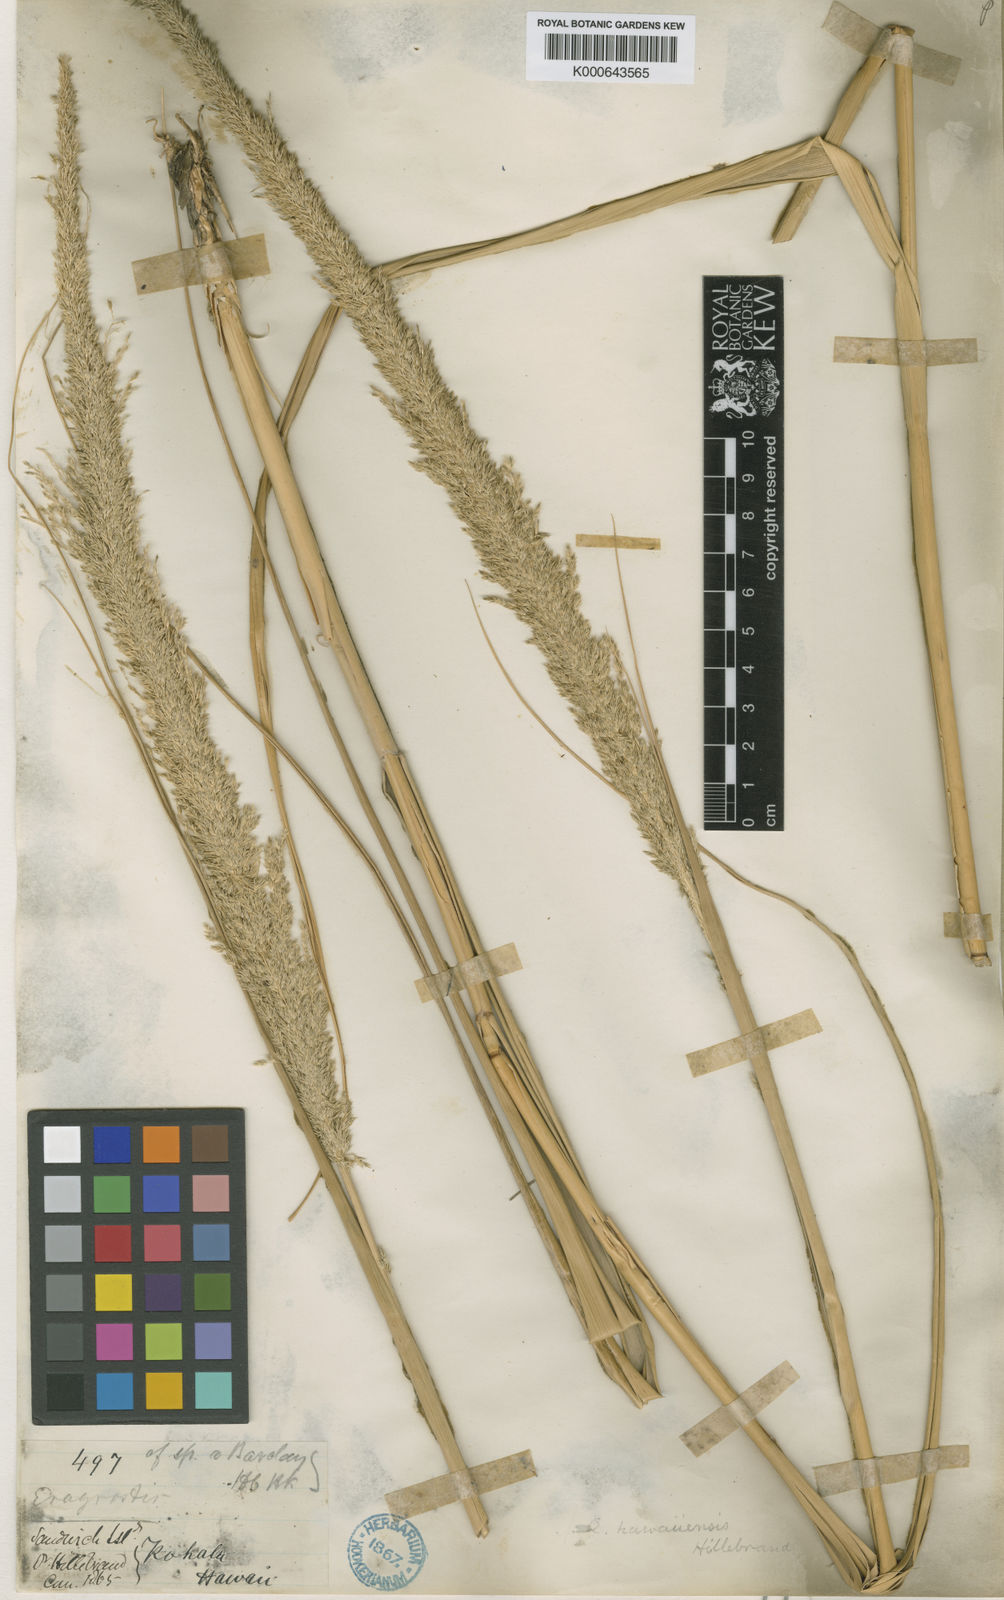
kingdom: Plantae
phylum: Tracheophyta
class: Liliopsida
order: Poales
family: Poaceae
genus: Eragrostis
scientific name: Eragrostis
